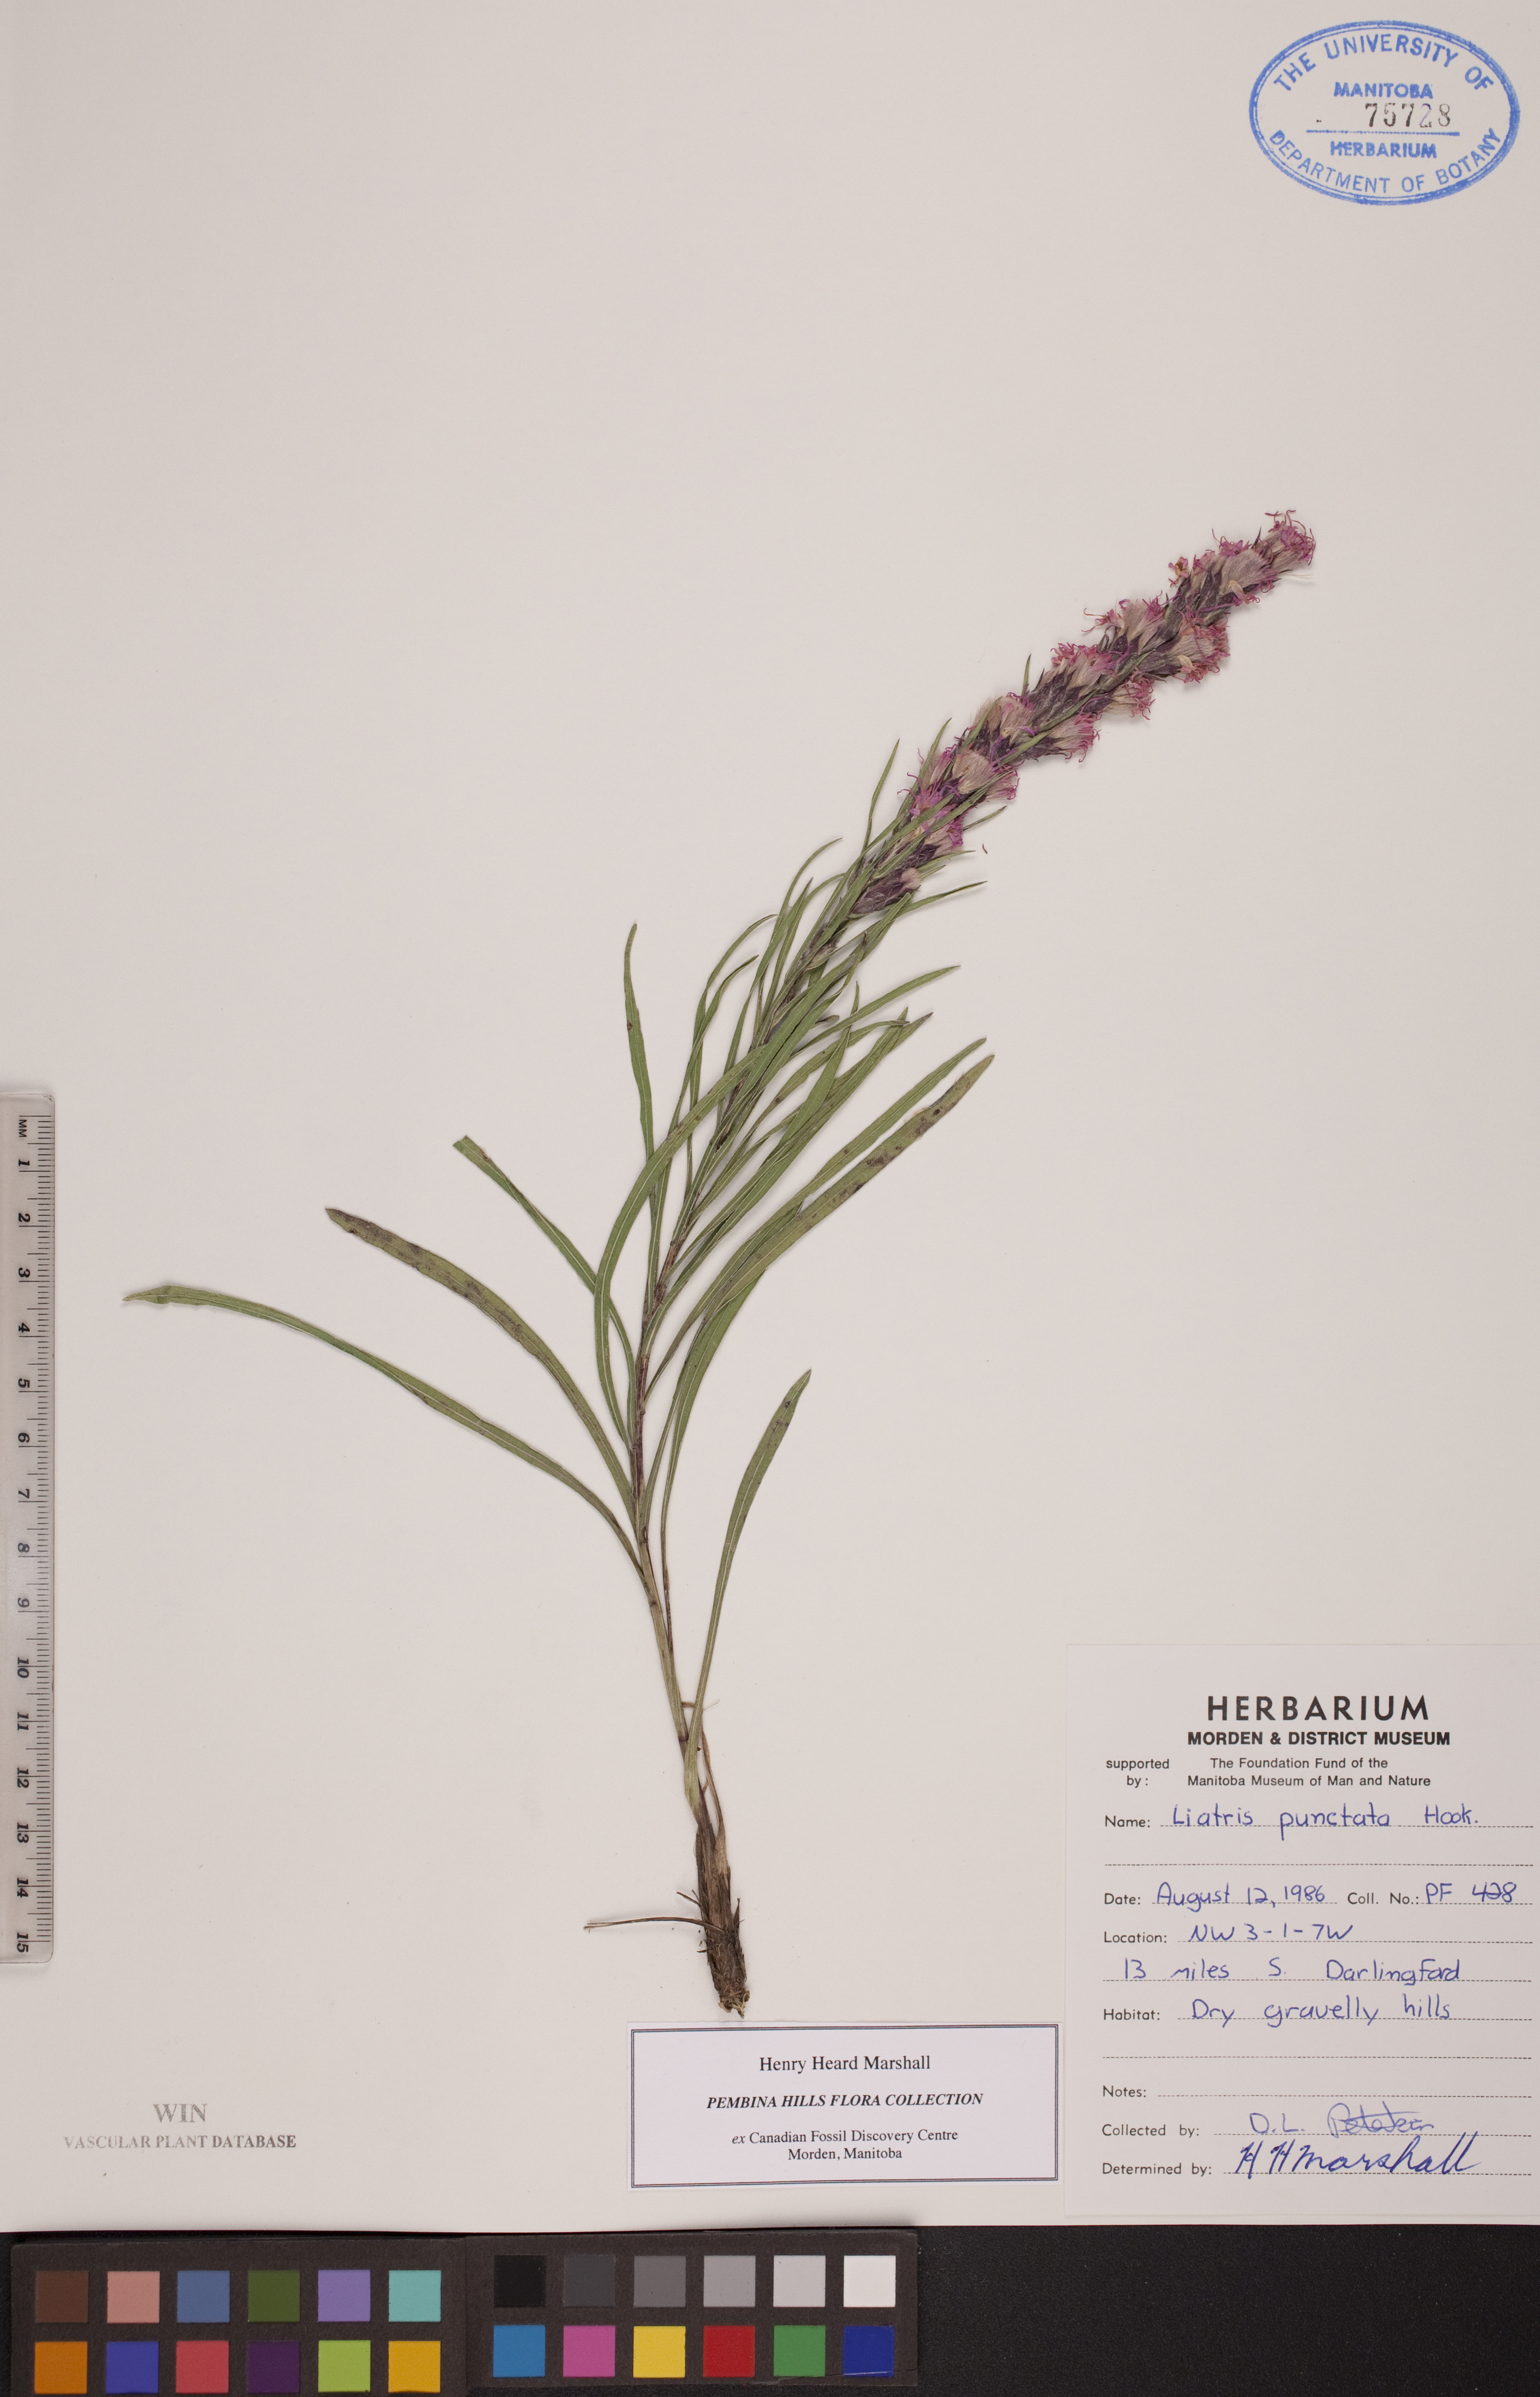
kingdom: Plantae
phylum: Tracheophyta
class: Magnoliopsida
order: Asterales
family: Asteraceae
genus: Liatris
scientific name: Liatris punctata
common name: Dotted gayfeather
